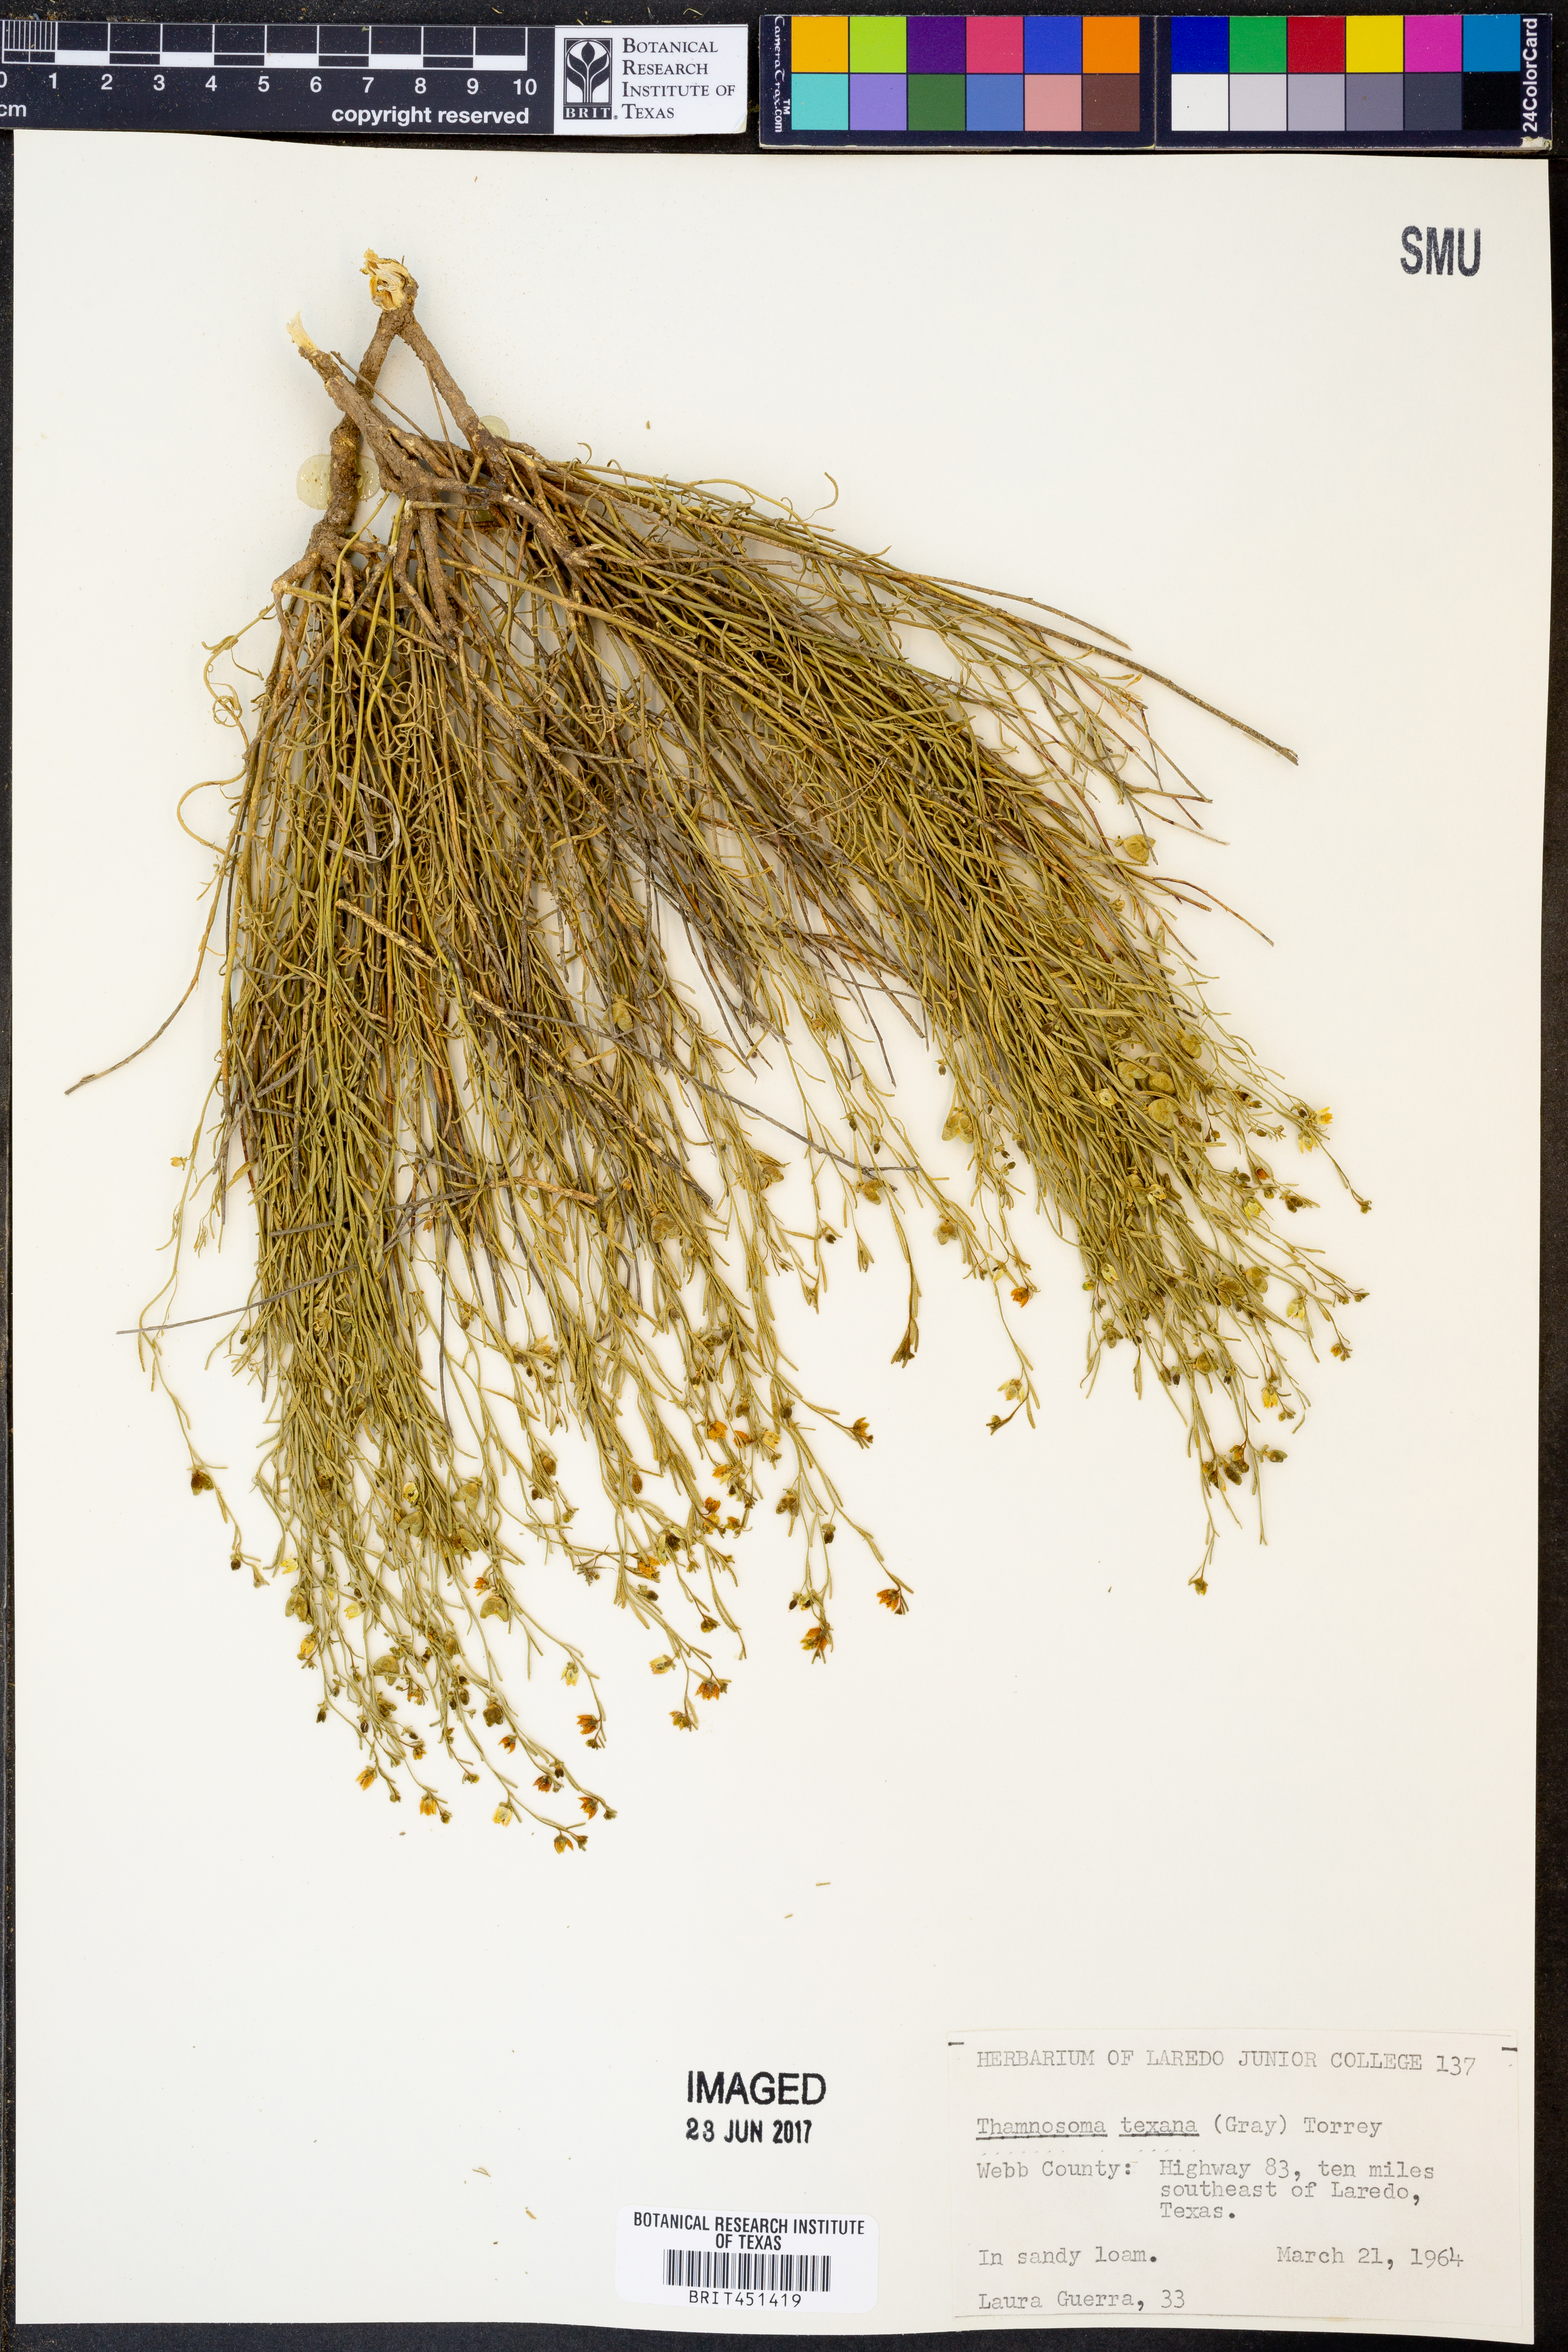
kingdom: Plantae
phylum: Tracheophyta
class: Magnoliopsida
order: Sapindales
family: Rutaceae
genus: Thamnosma
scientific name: Thamnosma texana
